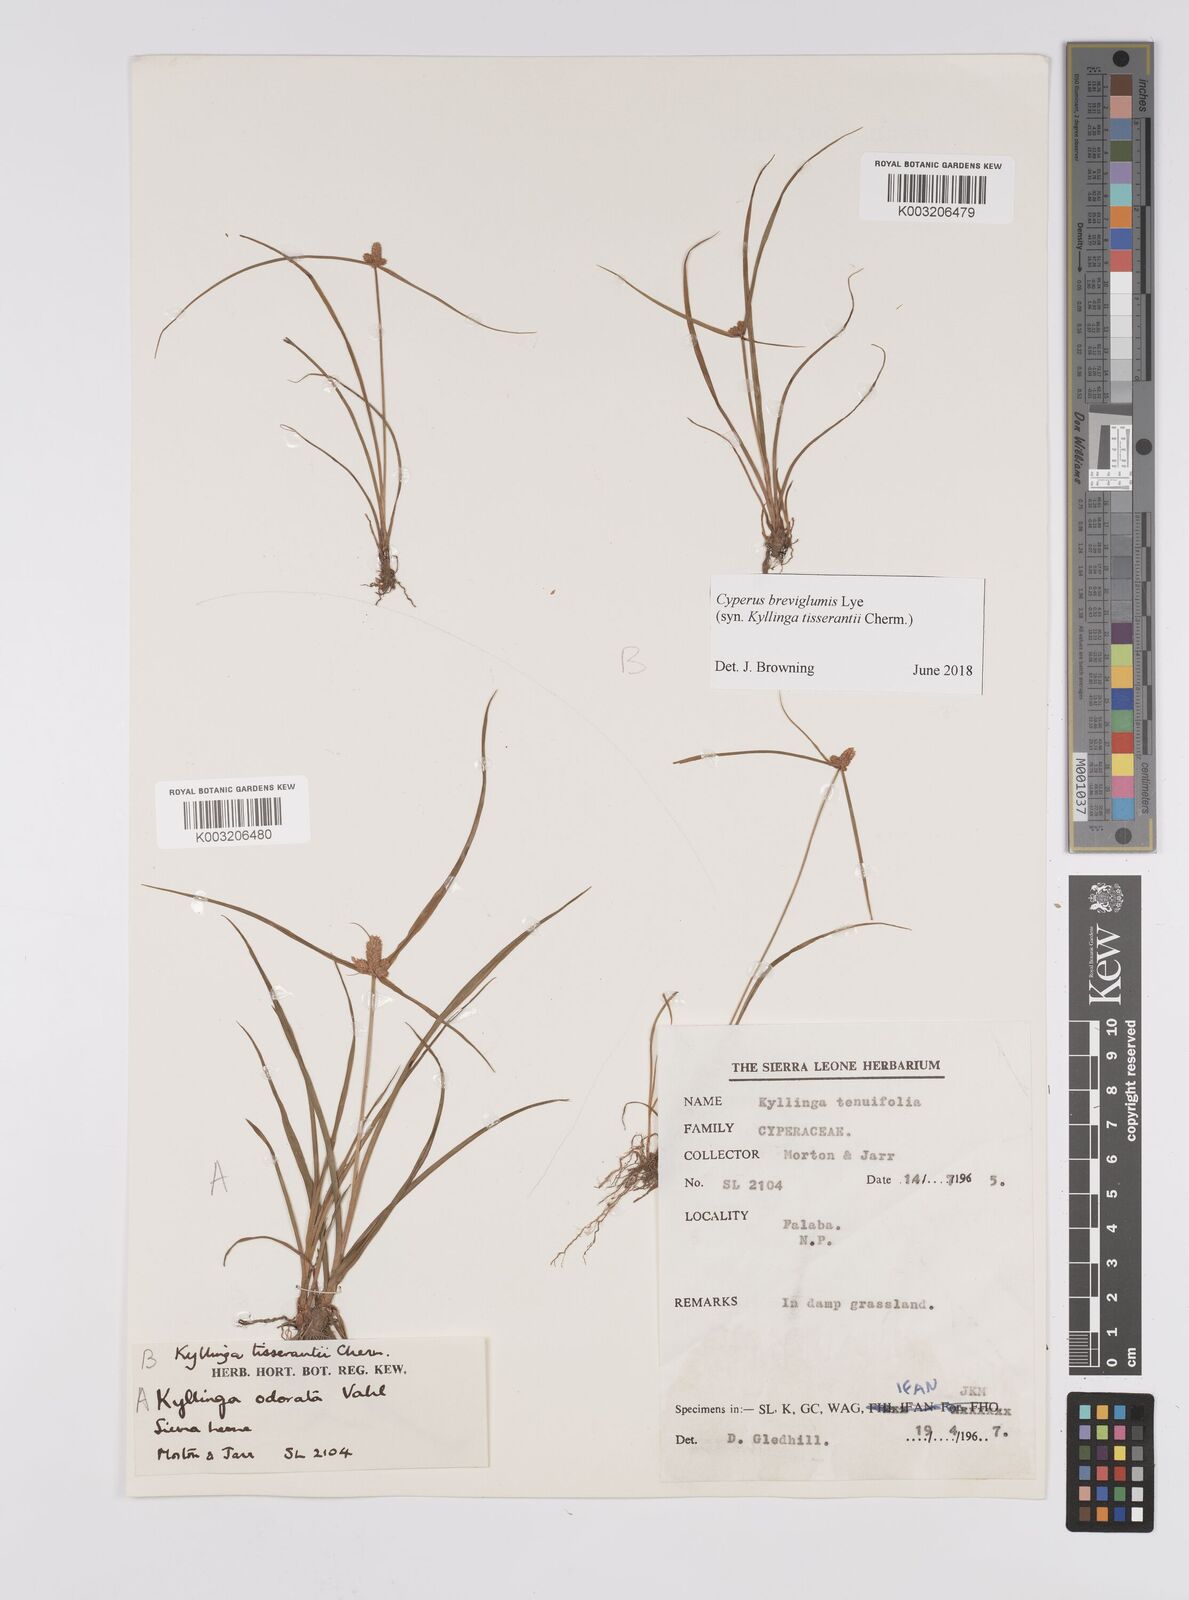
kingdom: Plantae
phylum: Tracheophyta
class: Liliopsida
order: Poales
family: Cyperaceae
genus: Cyperus
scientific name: Cyperus niveus
